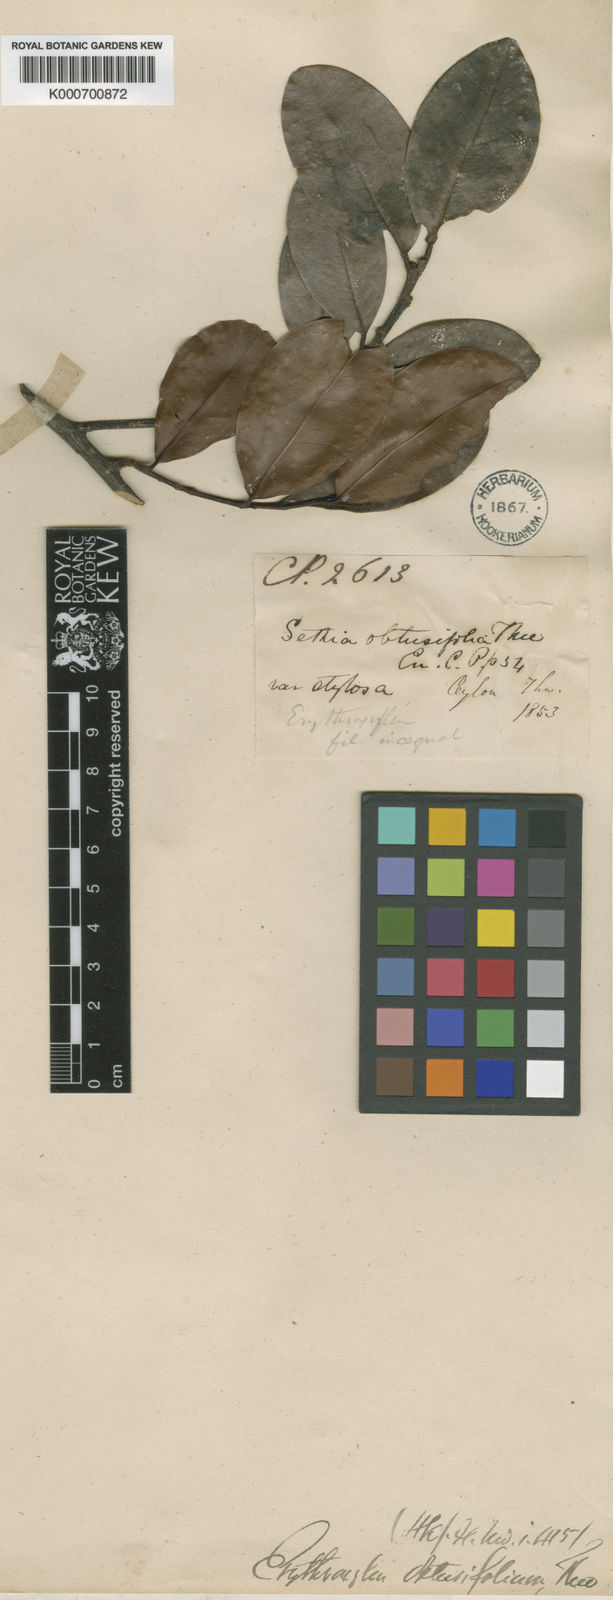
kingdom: Plantae
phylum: Tracheophyta
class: Magnoliopsida
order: Malpighiales
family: Erythroxylaceae
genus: Erythroxylum
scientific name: Erythroxylum
